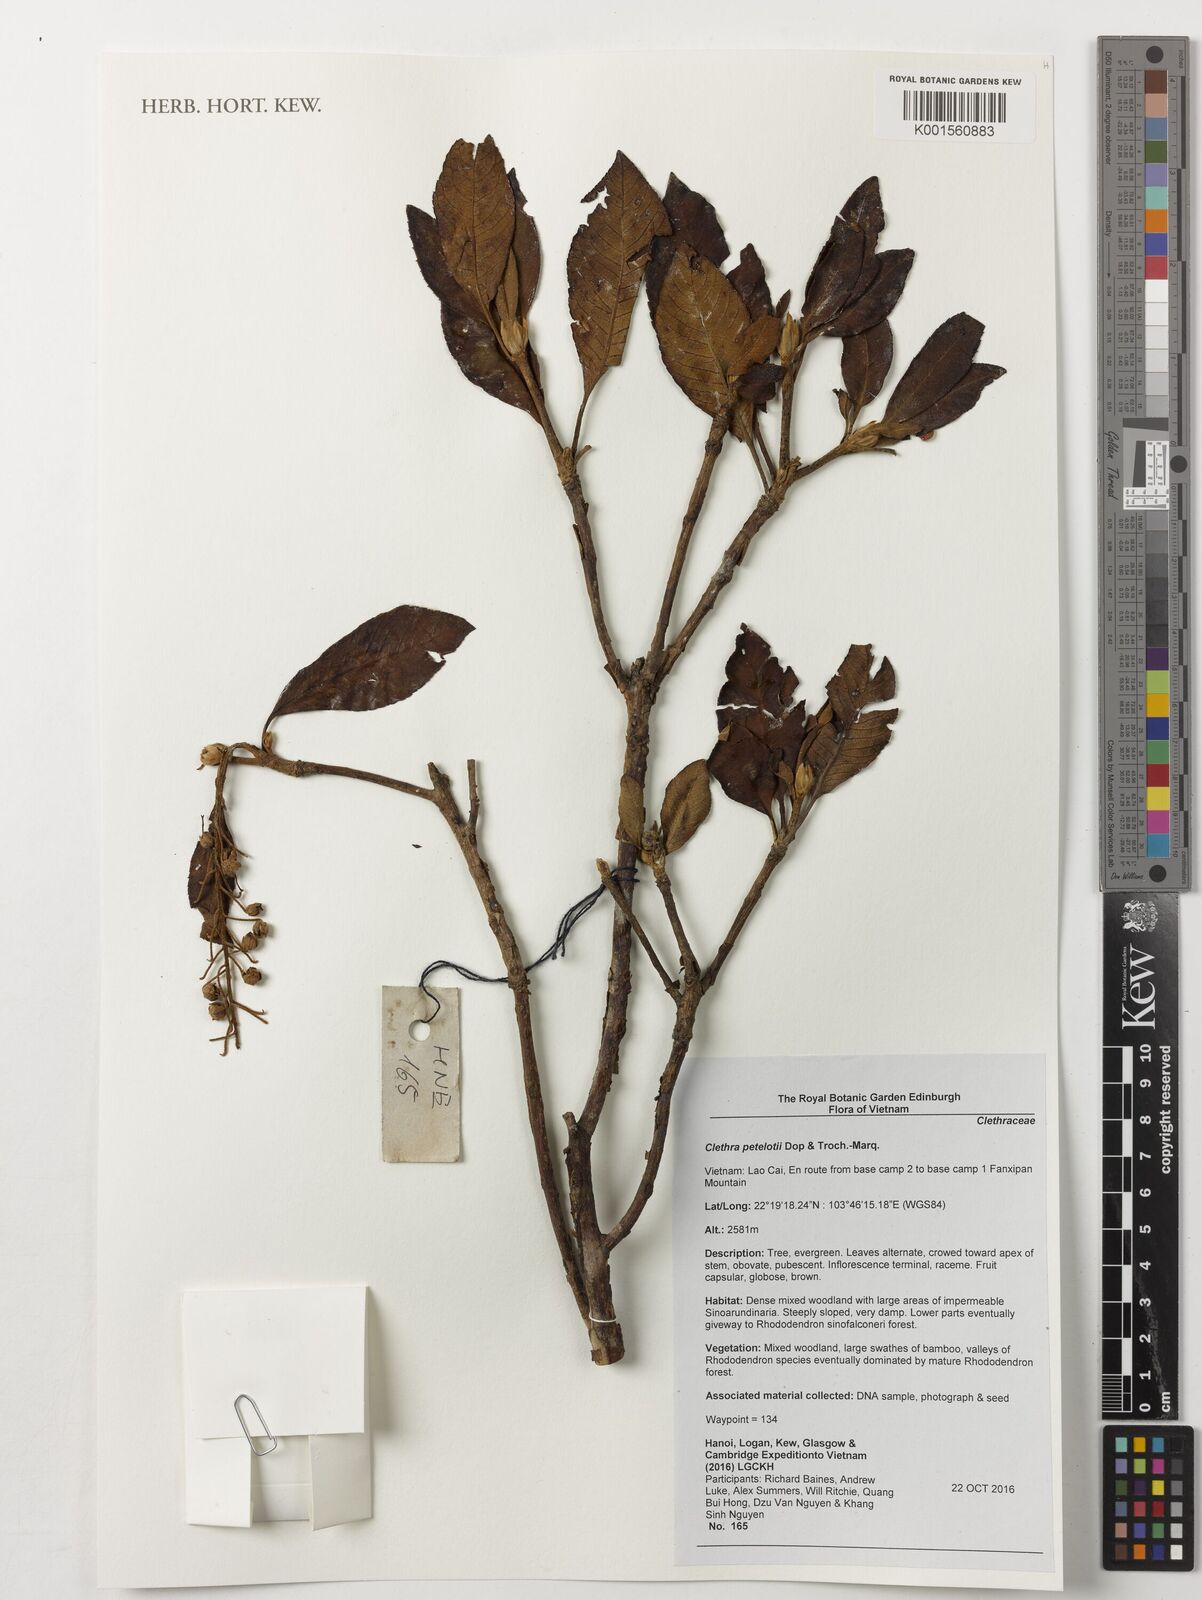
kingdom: Plantae
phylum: Tracheophyta
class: Magnoliopsida
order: Ericales
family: Clethraceae
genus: Clethra
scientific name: Clethra petelotii
